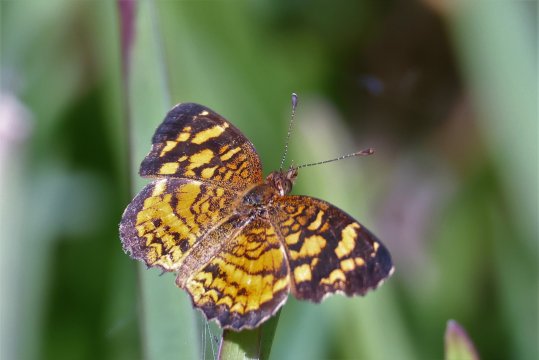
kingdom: Animalia
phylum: Arthropoda
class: Insecta
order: Lepidoptera
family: Nymphalidae
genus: Anthanassa
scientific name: Anthanassa frisia
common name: Cuban Crescent
